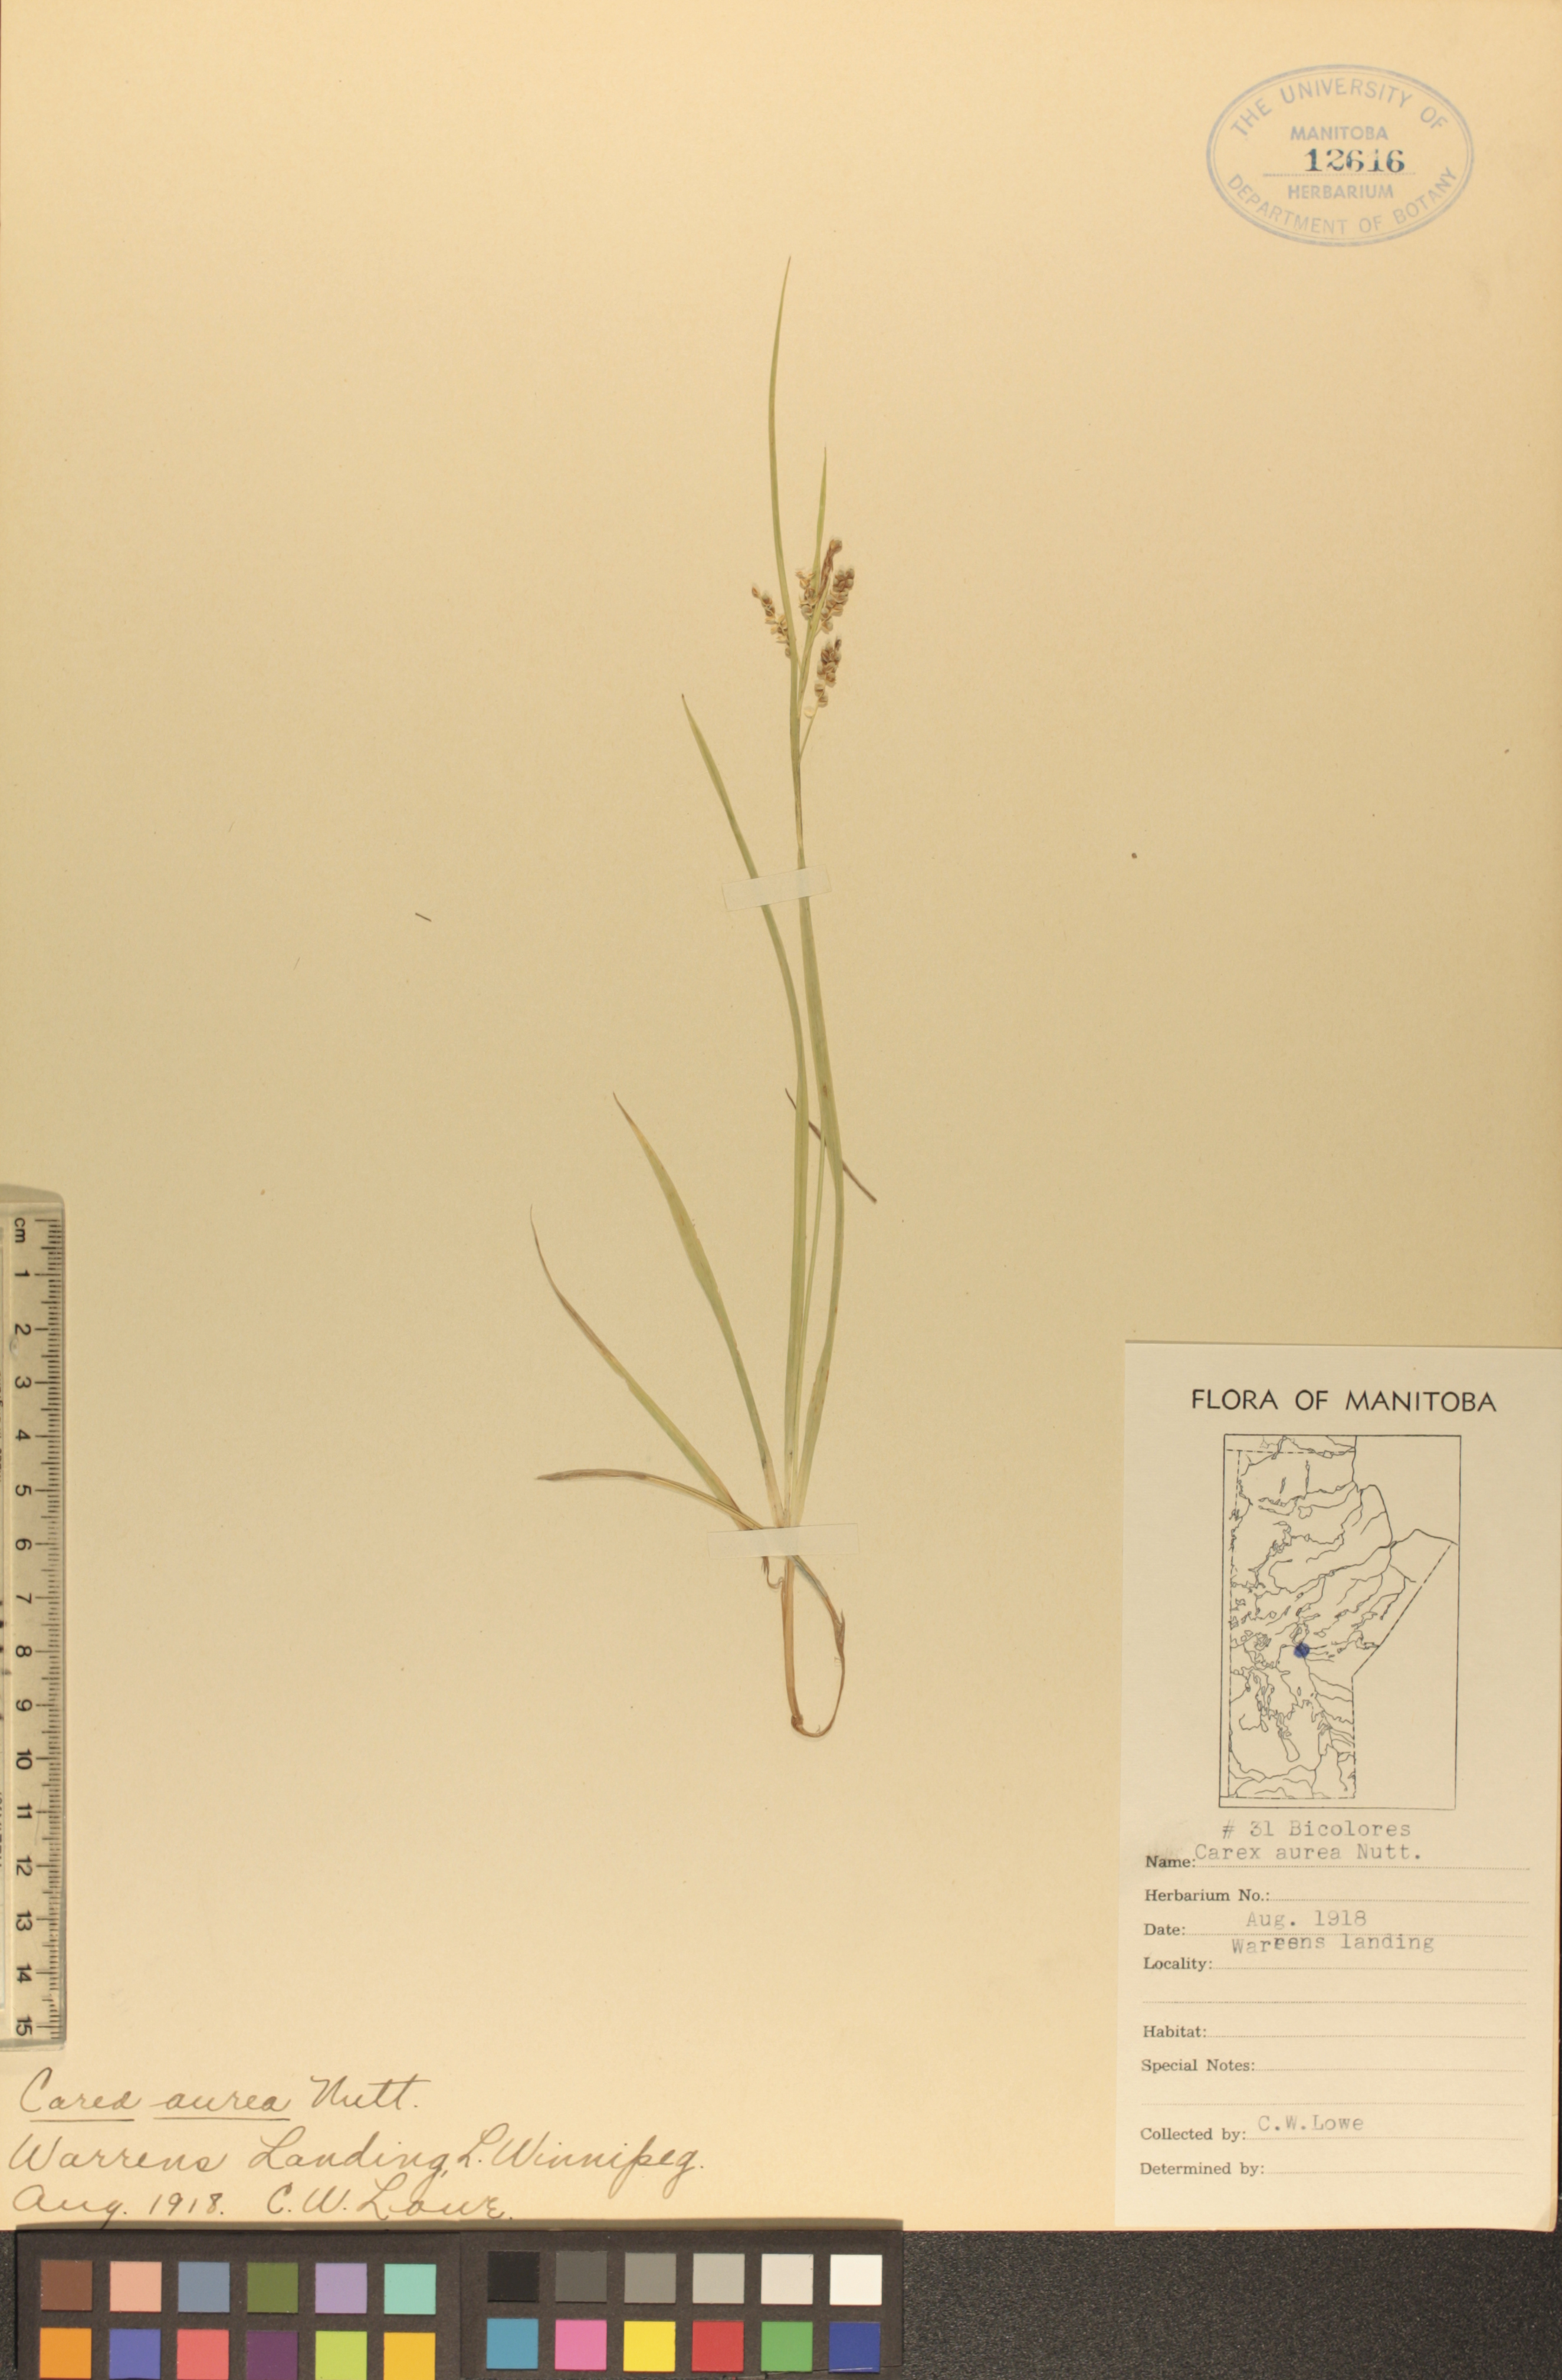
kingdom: Plantae
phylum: Tracheophyta
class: Liliopsida
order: Poales
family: Cyperaceae
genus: Carex
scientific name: Carex aurea
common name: Golden sedge
